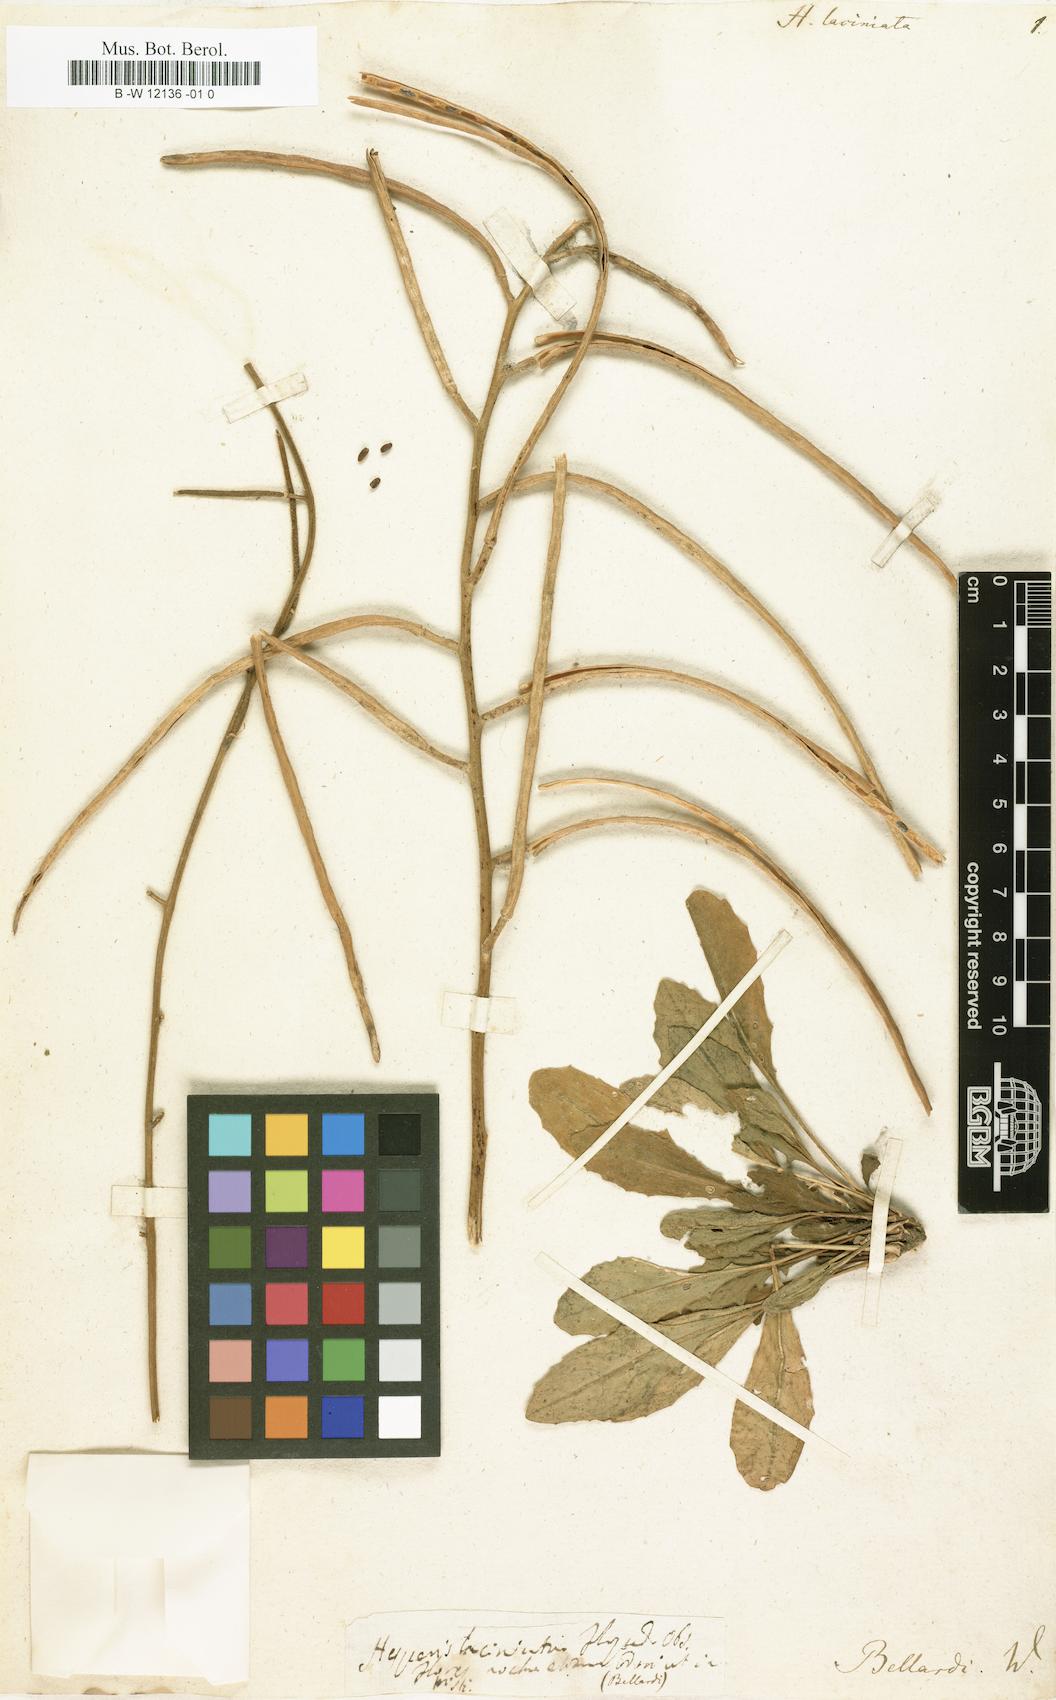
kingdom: Plantae
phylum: Tracheophyta
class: Magnoliopsida
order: Brassicales
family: Brassicaceae
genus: Hesperis
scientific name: Hesperis laciniata
